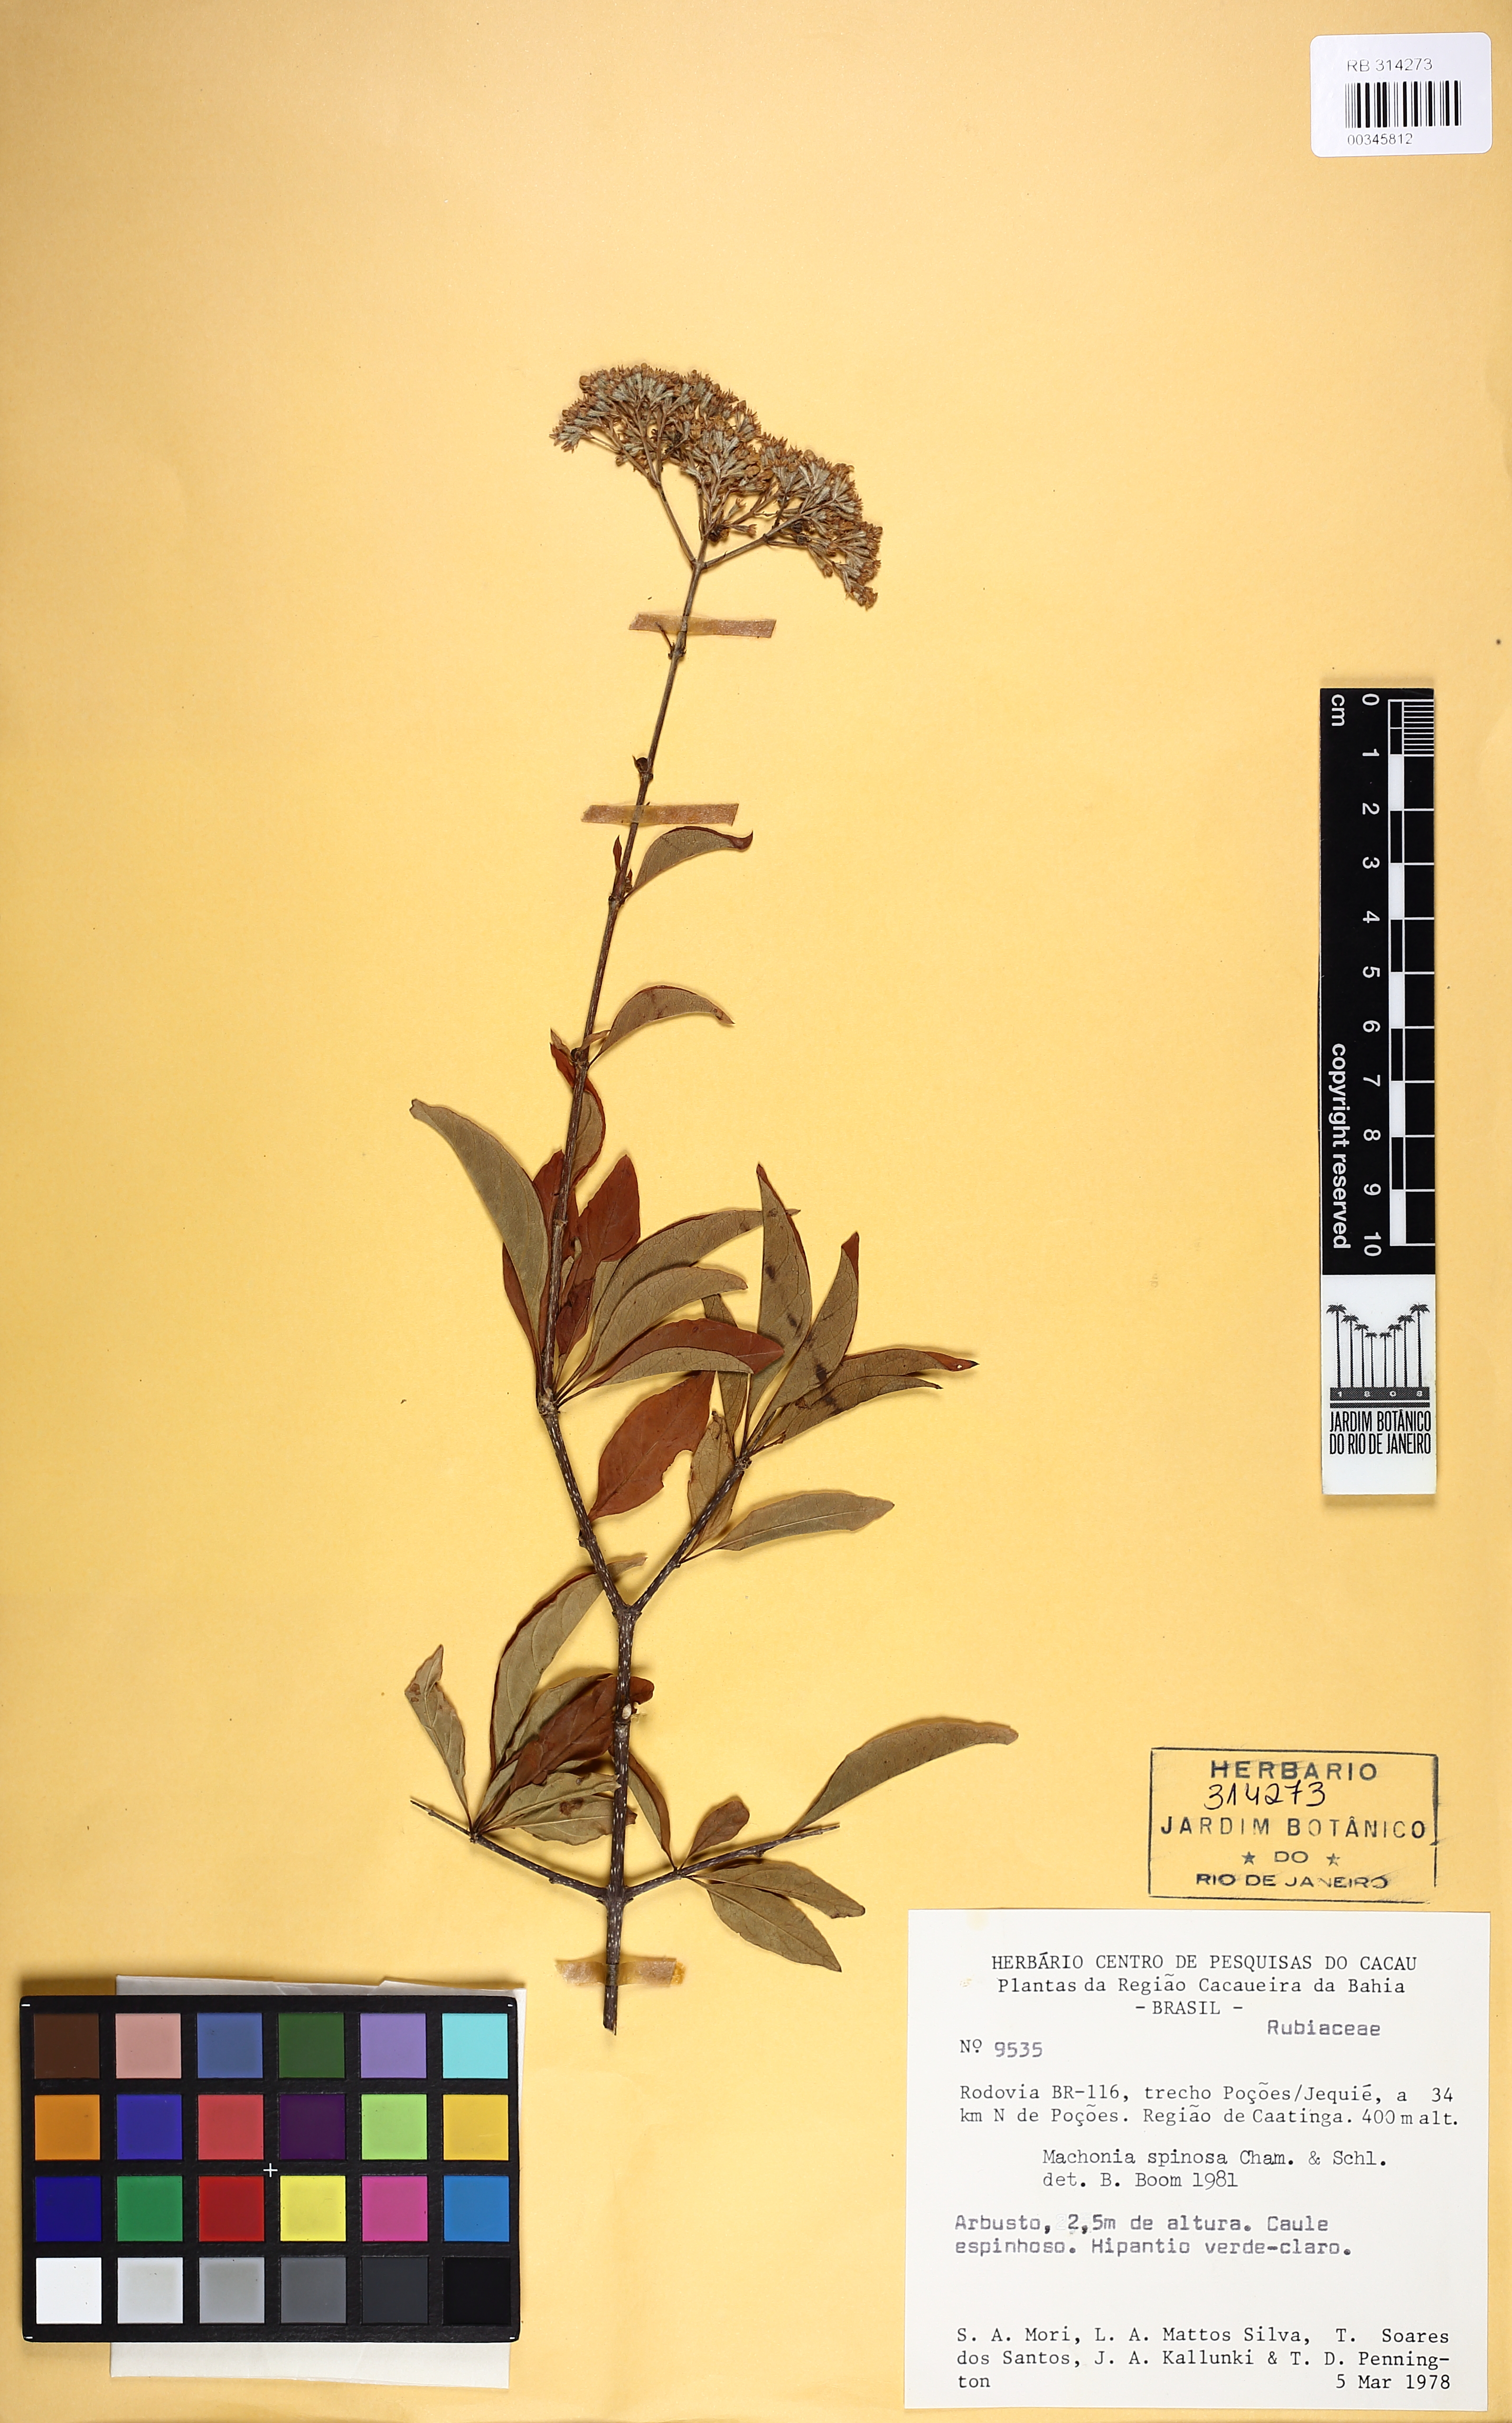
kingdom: Plantae
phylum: Tracheophyta
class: Magnoliopsida
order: Gentianales
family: Rubiaceae
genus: Machaonia
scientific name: Machaonia brasiliensis
